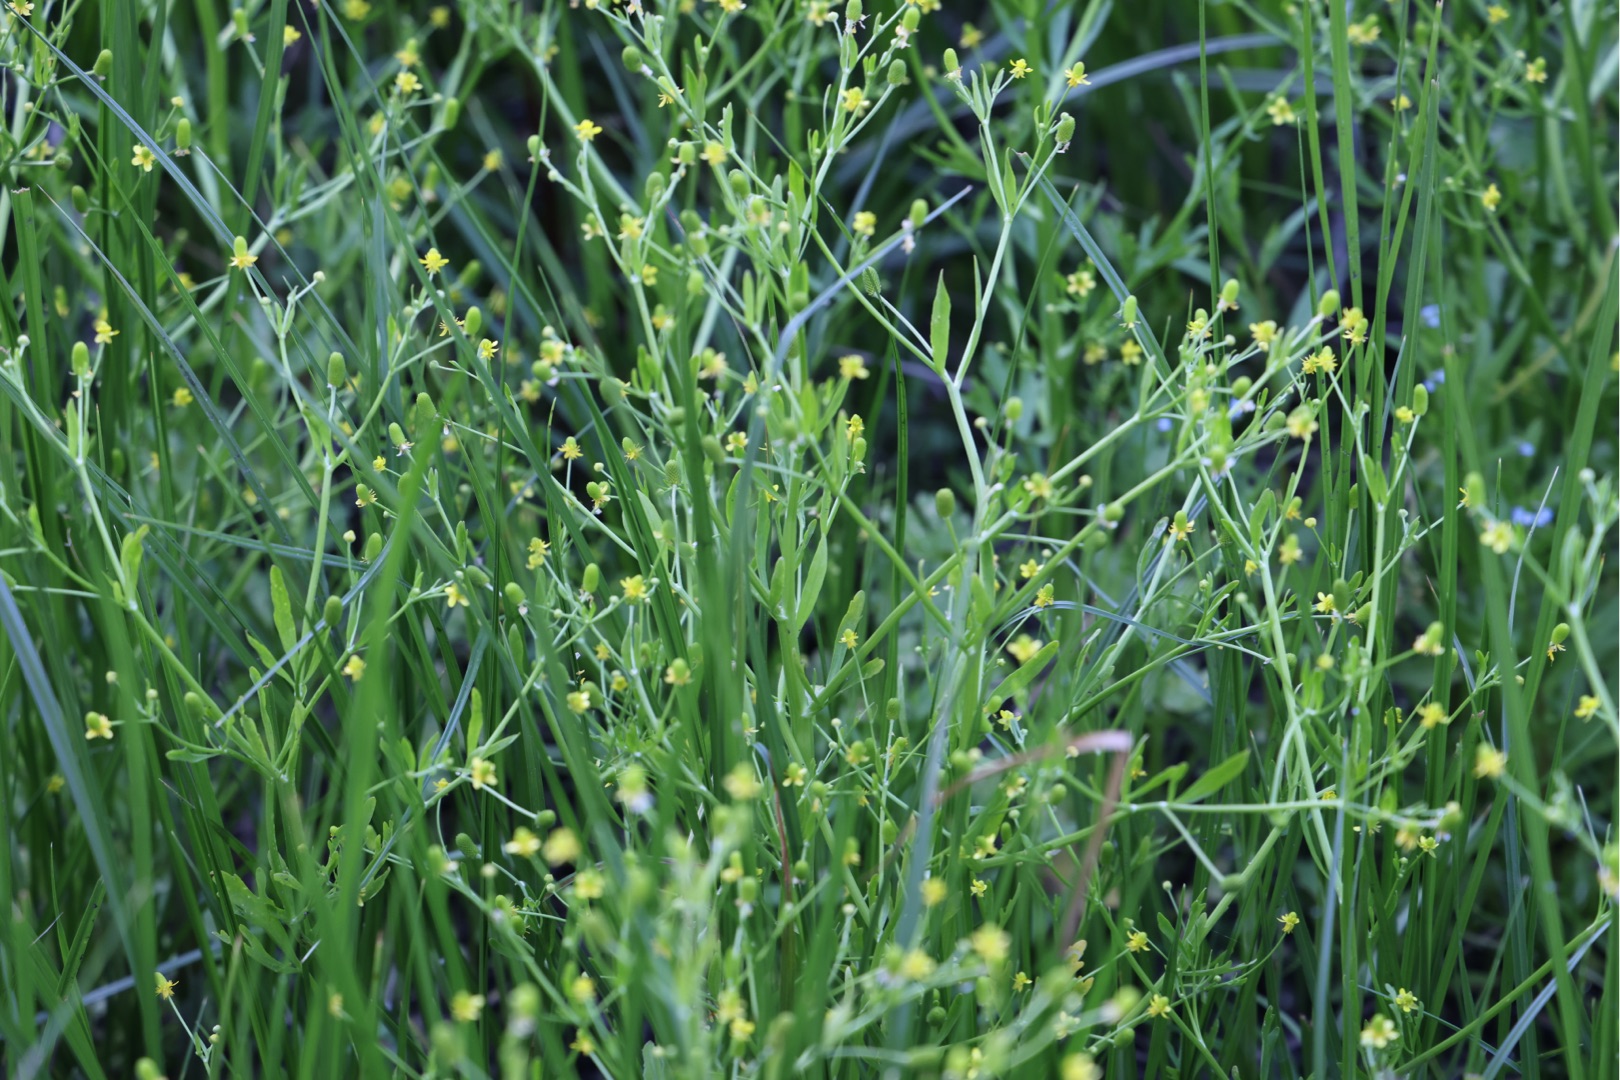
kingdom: Plantae
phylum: Tracheophyta
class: Magnoliopsida
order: Ranunculales
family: Ranunculaceae
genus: Ranunculus
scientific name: Ranunculus sceleratus
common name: Tigger-ranunkel
